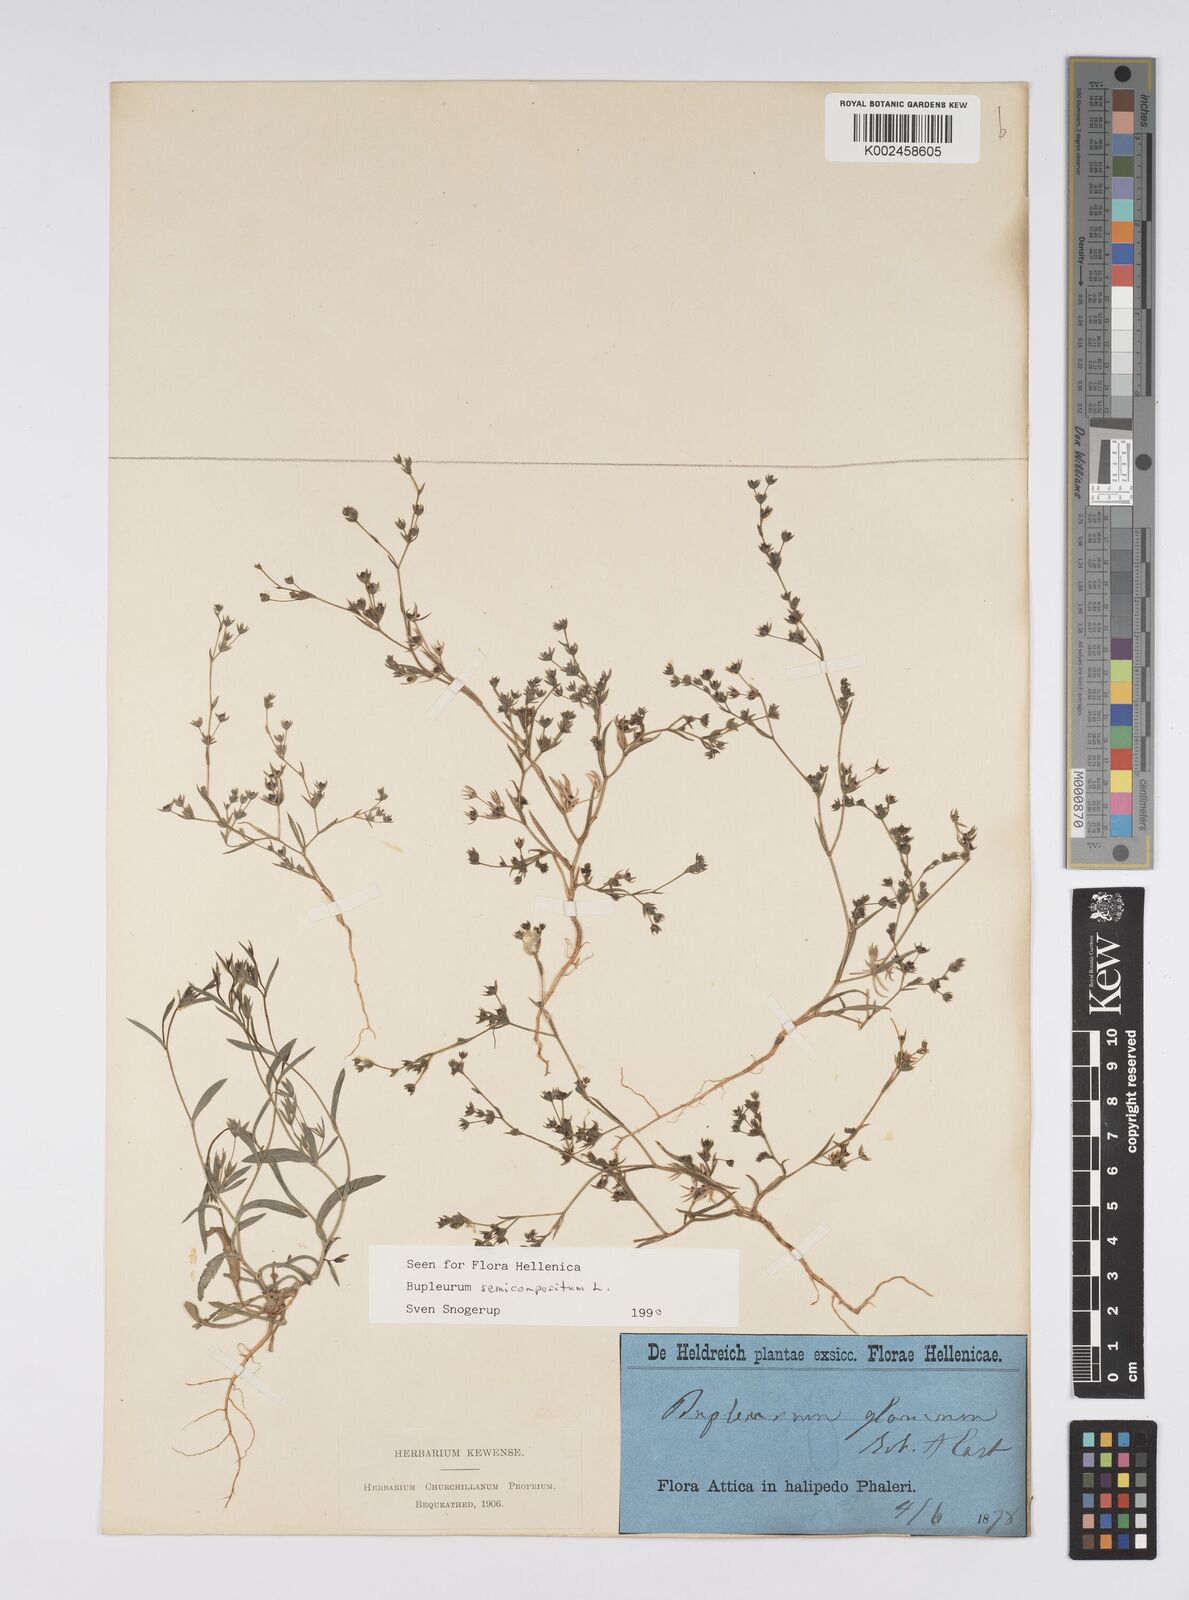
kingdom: Plantae
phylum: Tracheophyta
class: Magnoliopsida
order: Apiales
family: Apiaceae
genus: Bupleurum
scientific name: Bupleurum semicompositum
